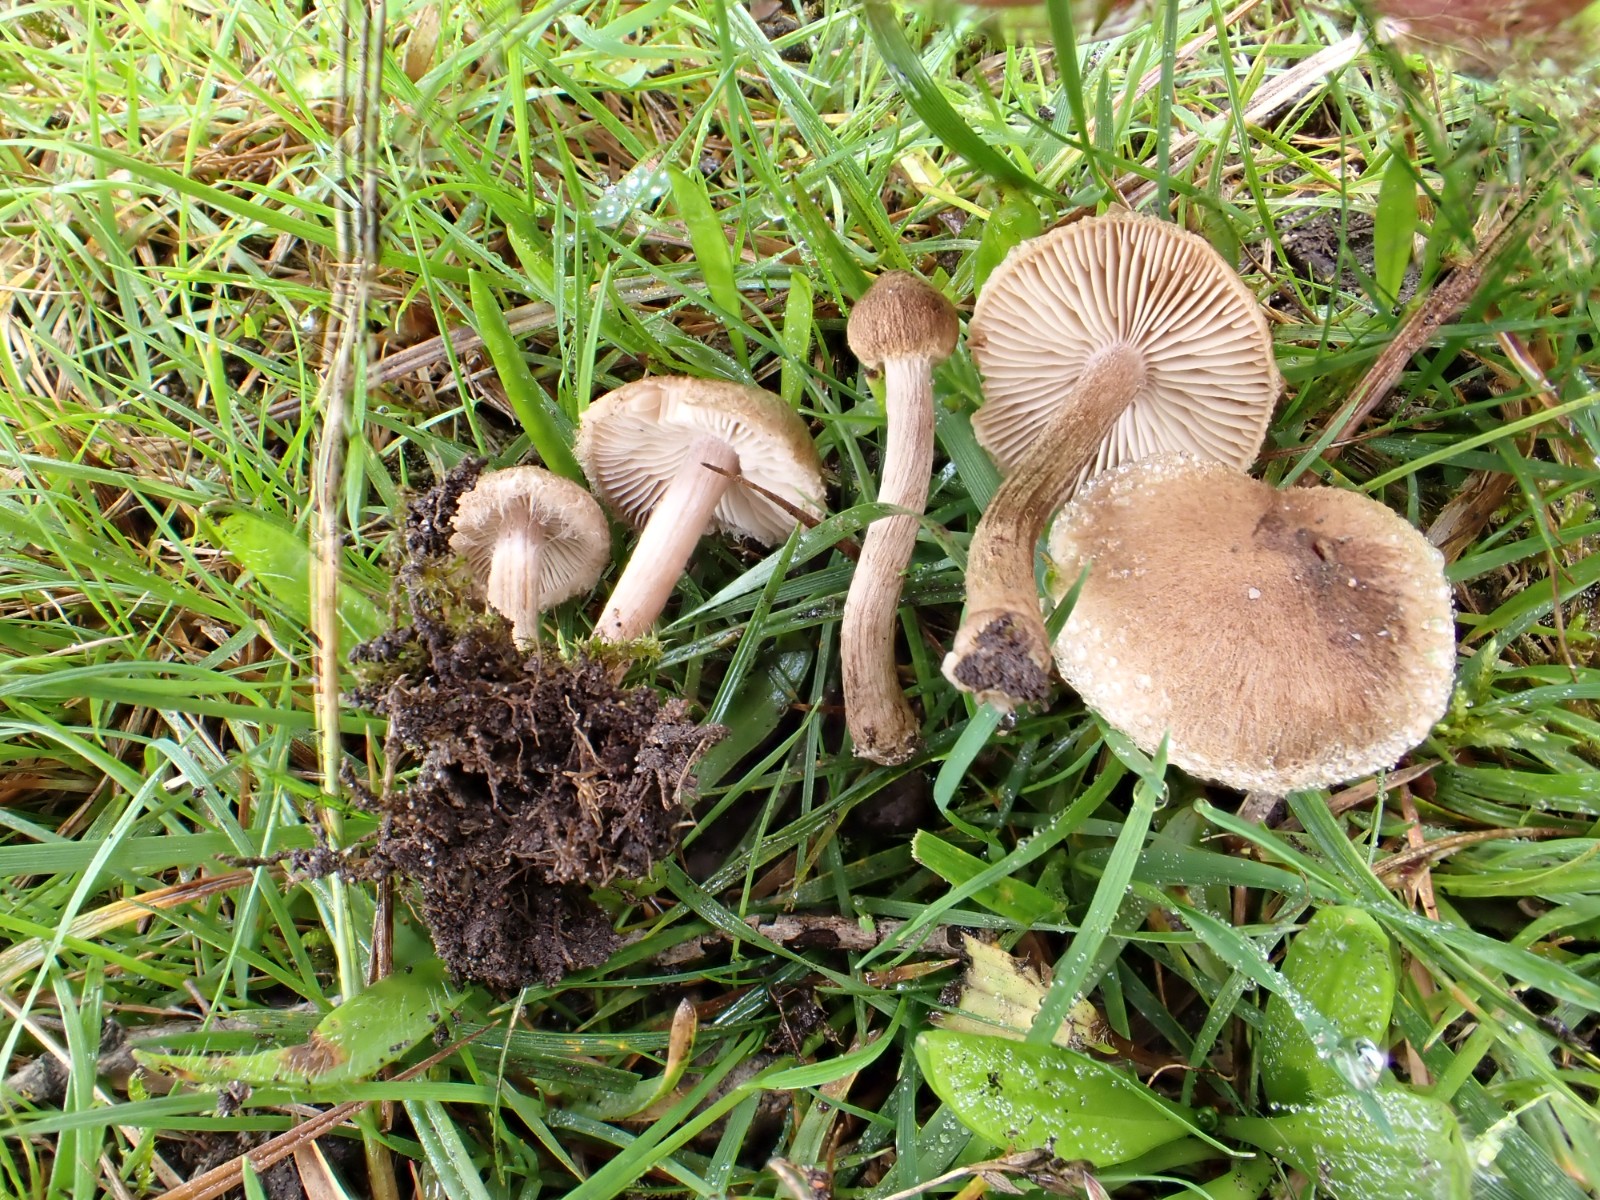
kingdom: Fungi
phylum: Basidiomycota
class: Agaricomycetes
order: Agaricales
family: Inocybaceae
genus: Inocybe
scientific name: Inocybe
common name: trævlhat
